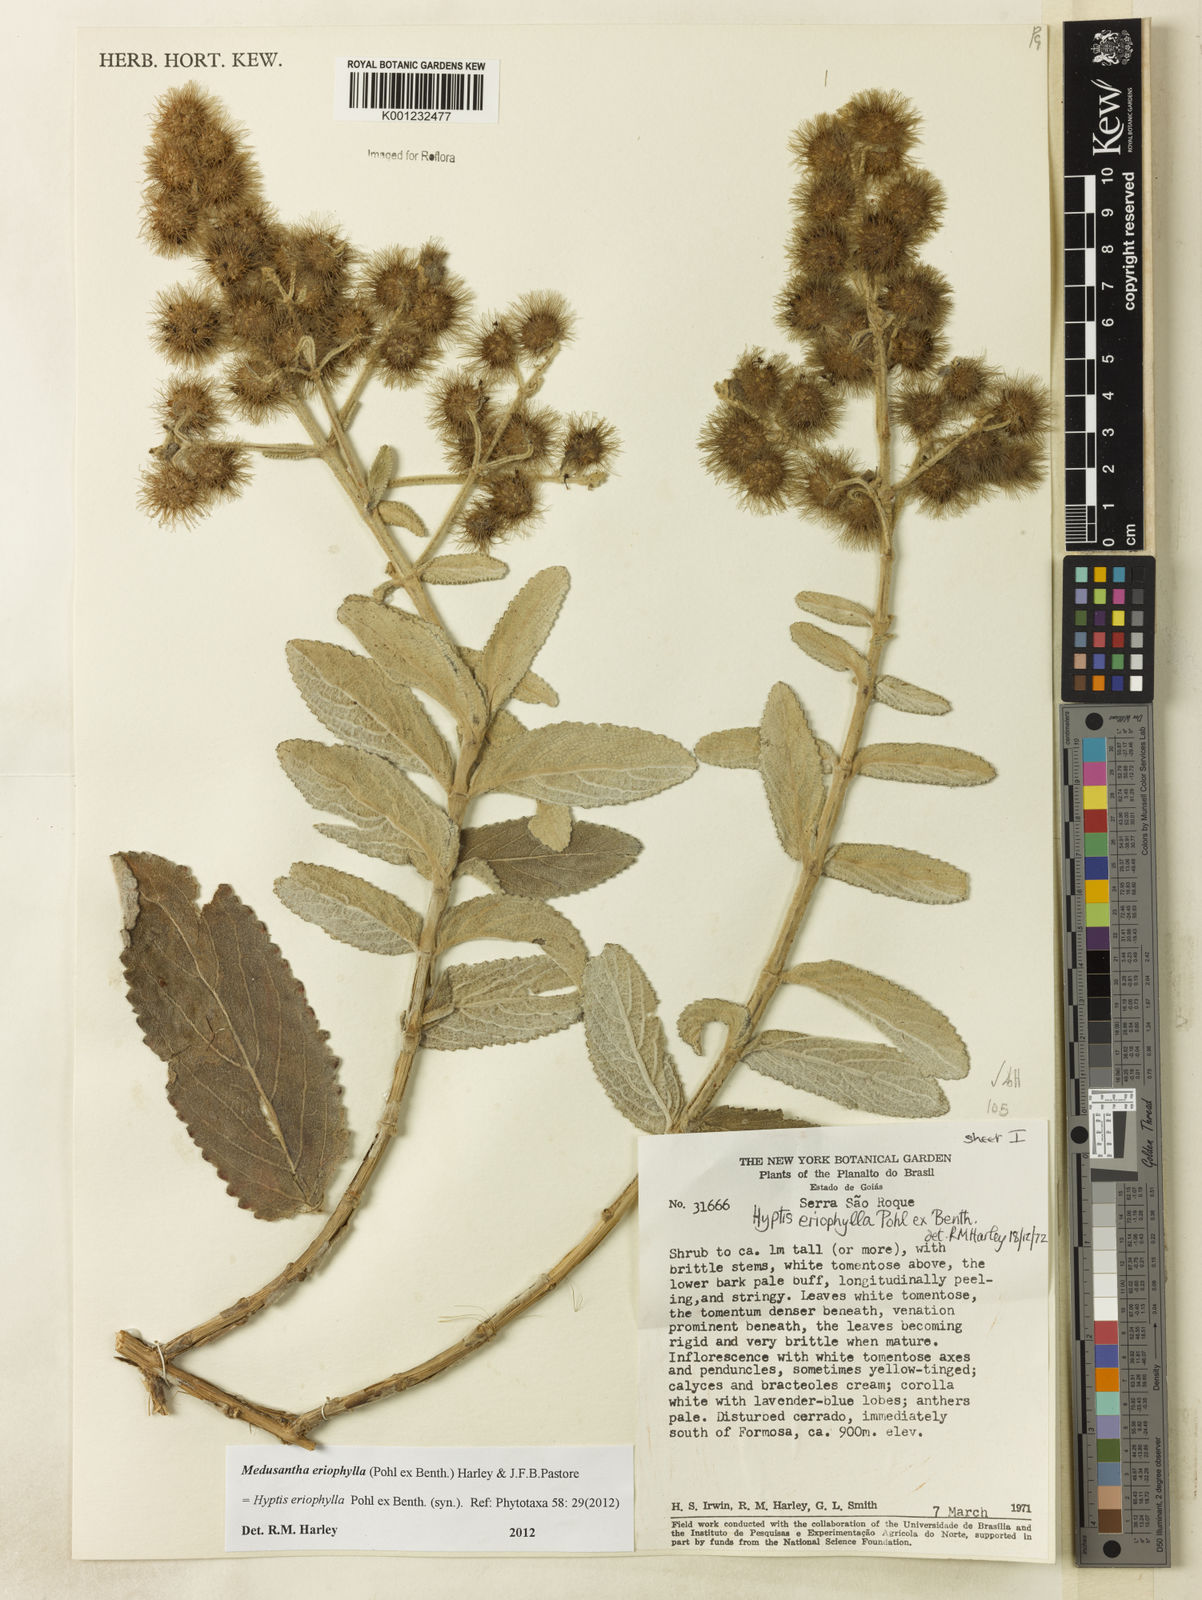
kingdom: Plantae
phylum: Tracheophyta
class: Magnoliopsida
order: Lamiales
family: Lamiaceae
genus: Medusantha
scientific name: Medusantha eriophylla
